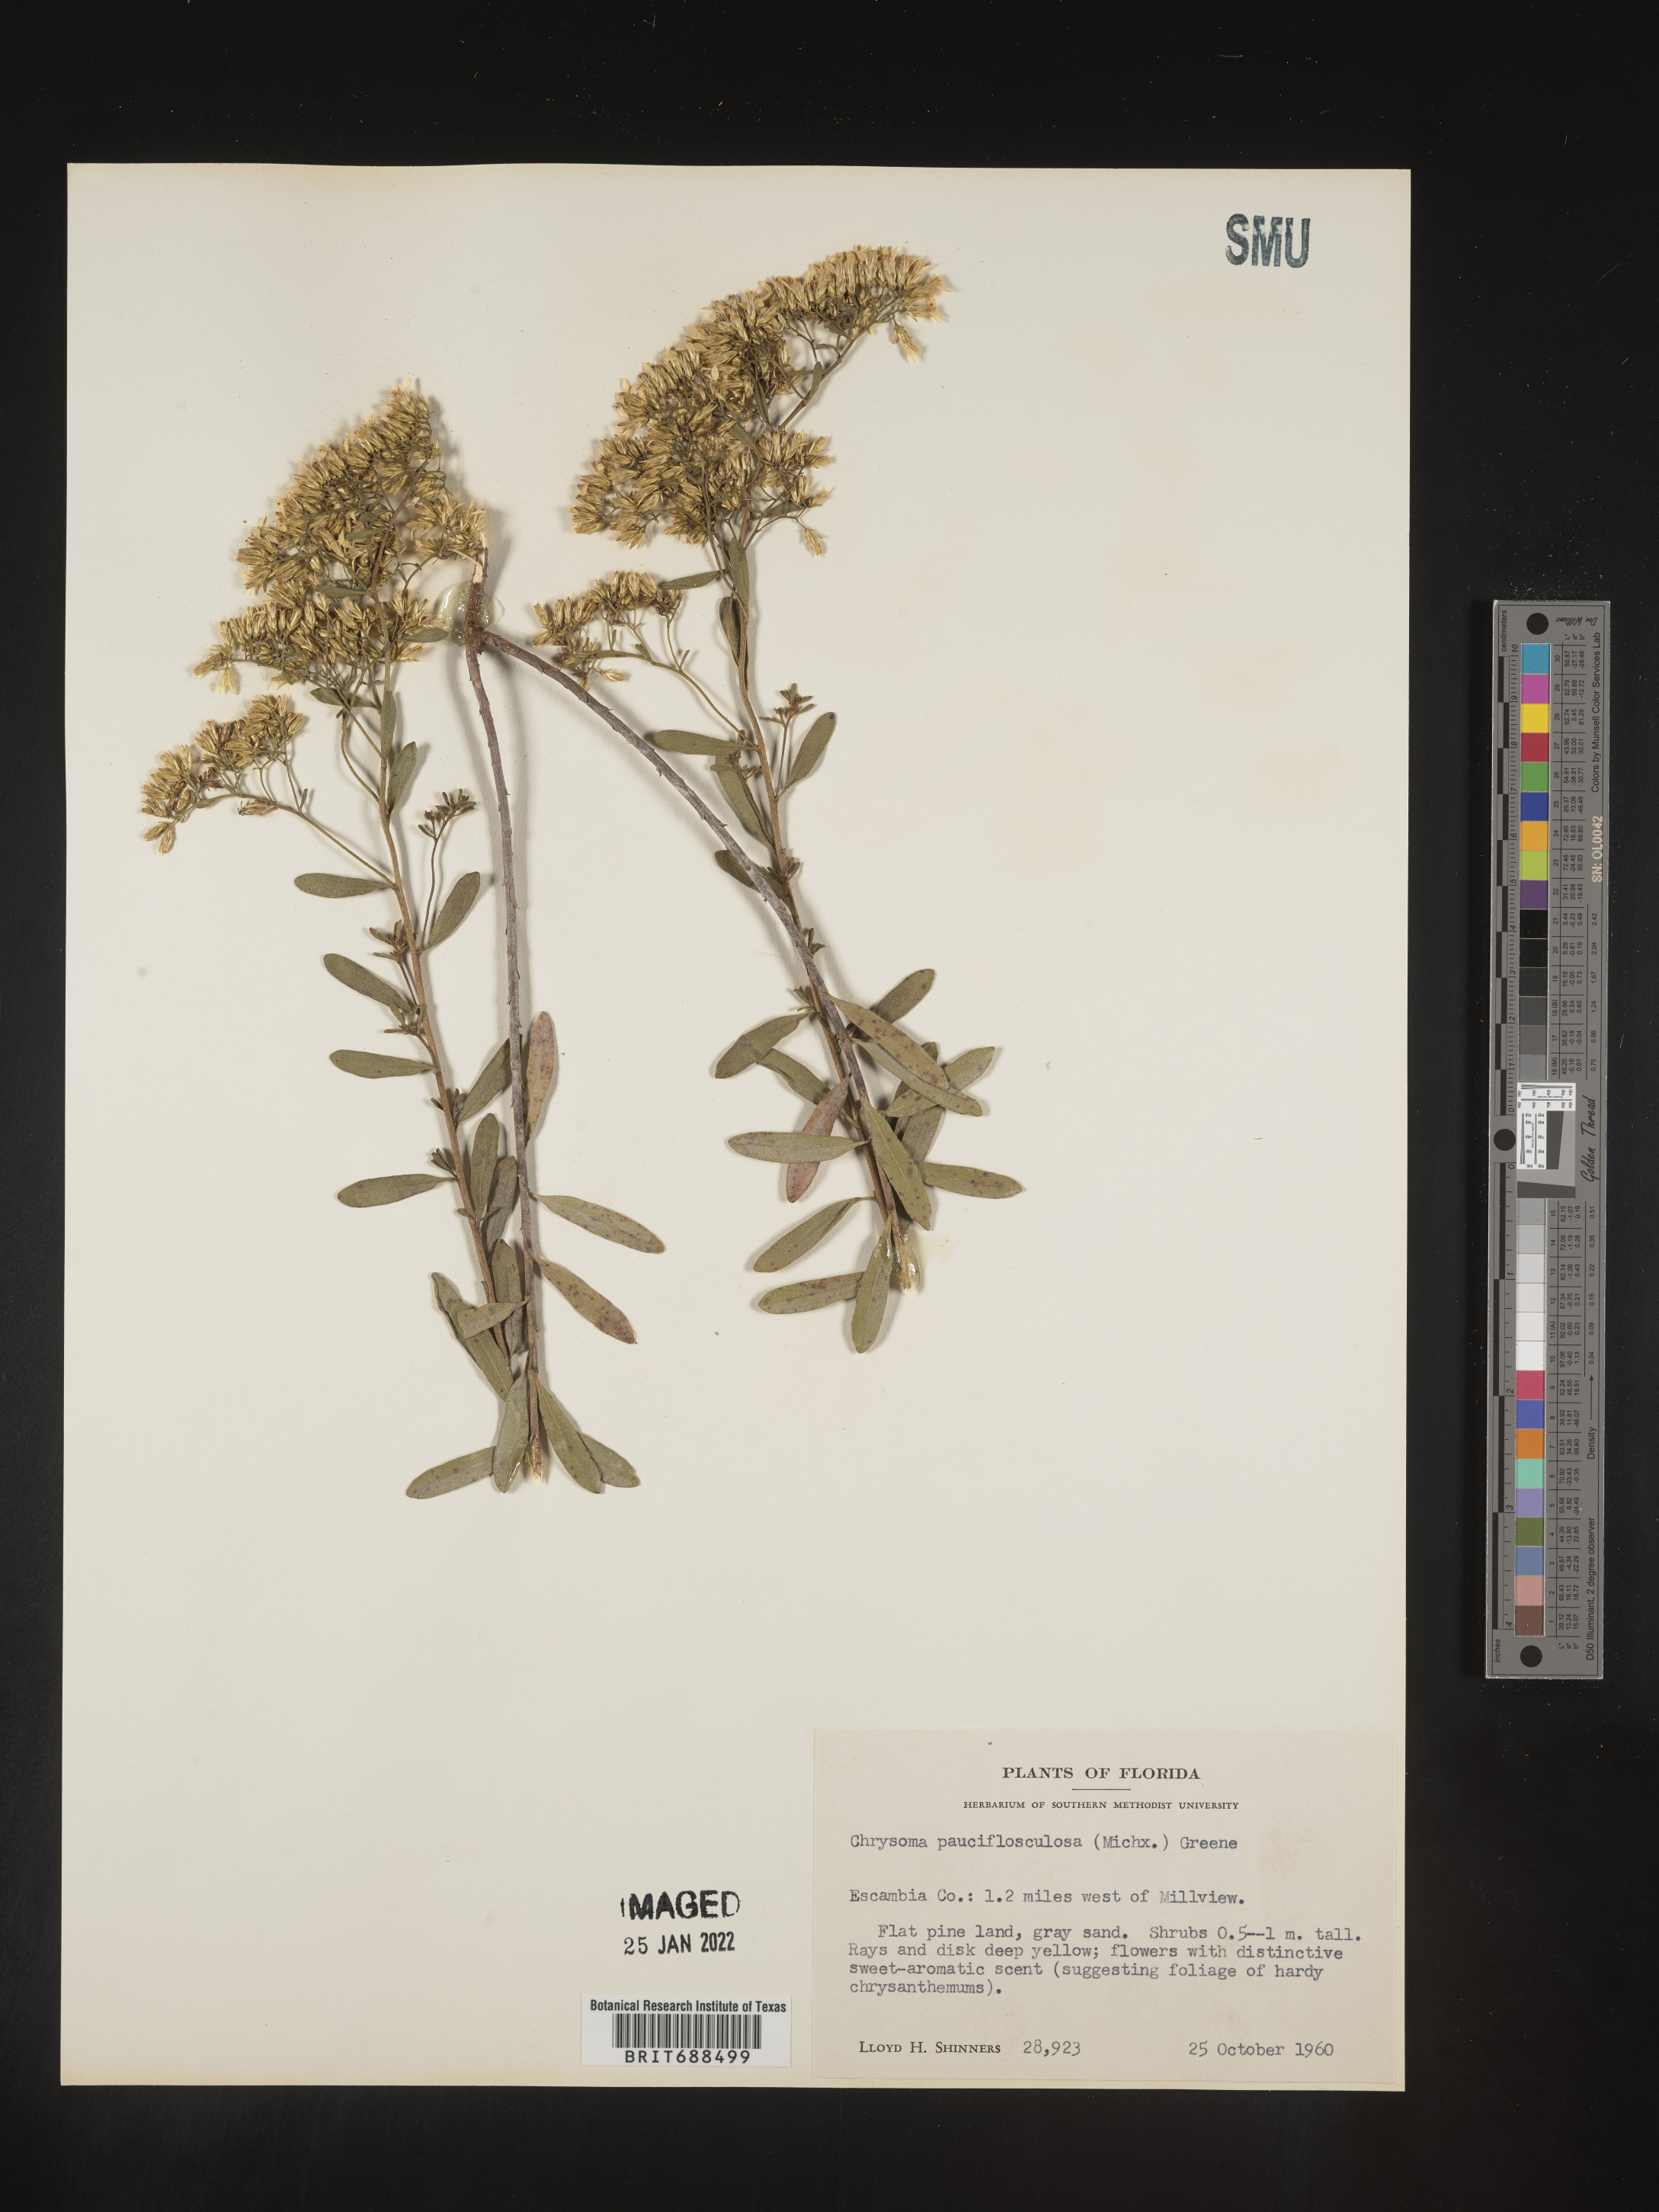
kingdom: Plantae
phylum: Tracheophyta
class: Magnoliopsida
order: Asterales
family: Asteraceae
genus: Chrysoma
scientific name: Chrysoma pauciflosculosa
